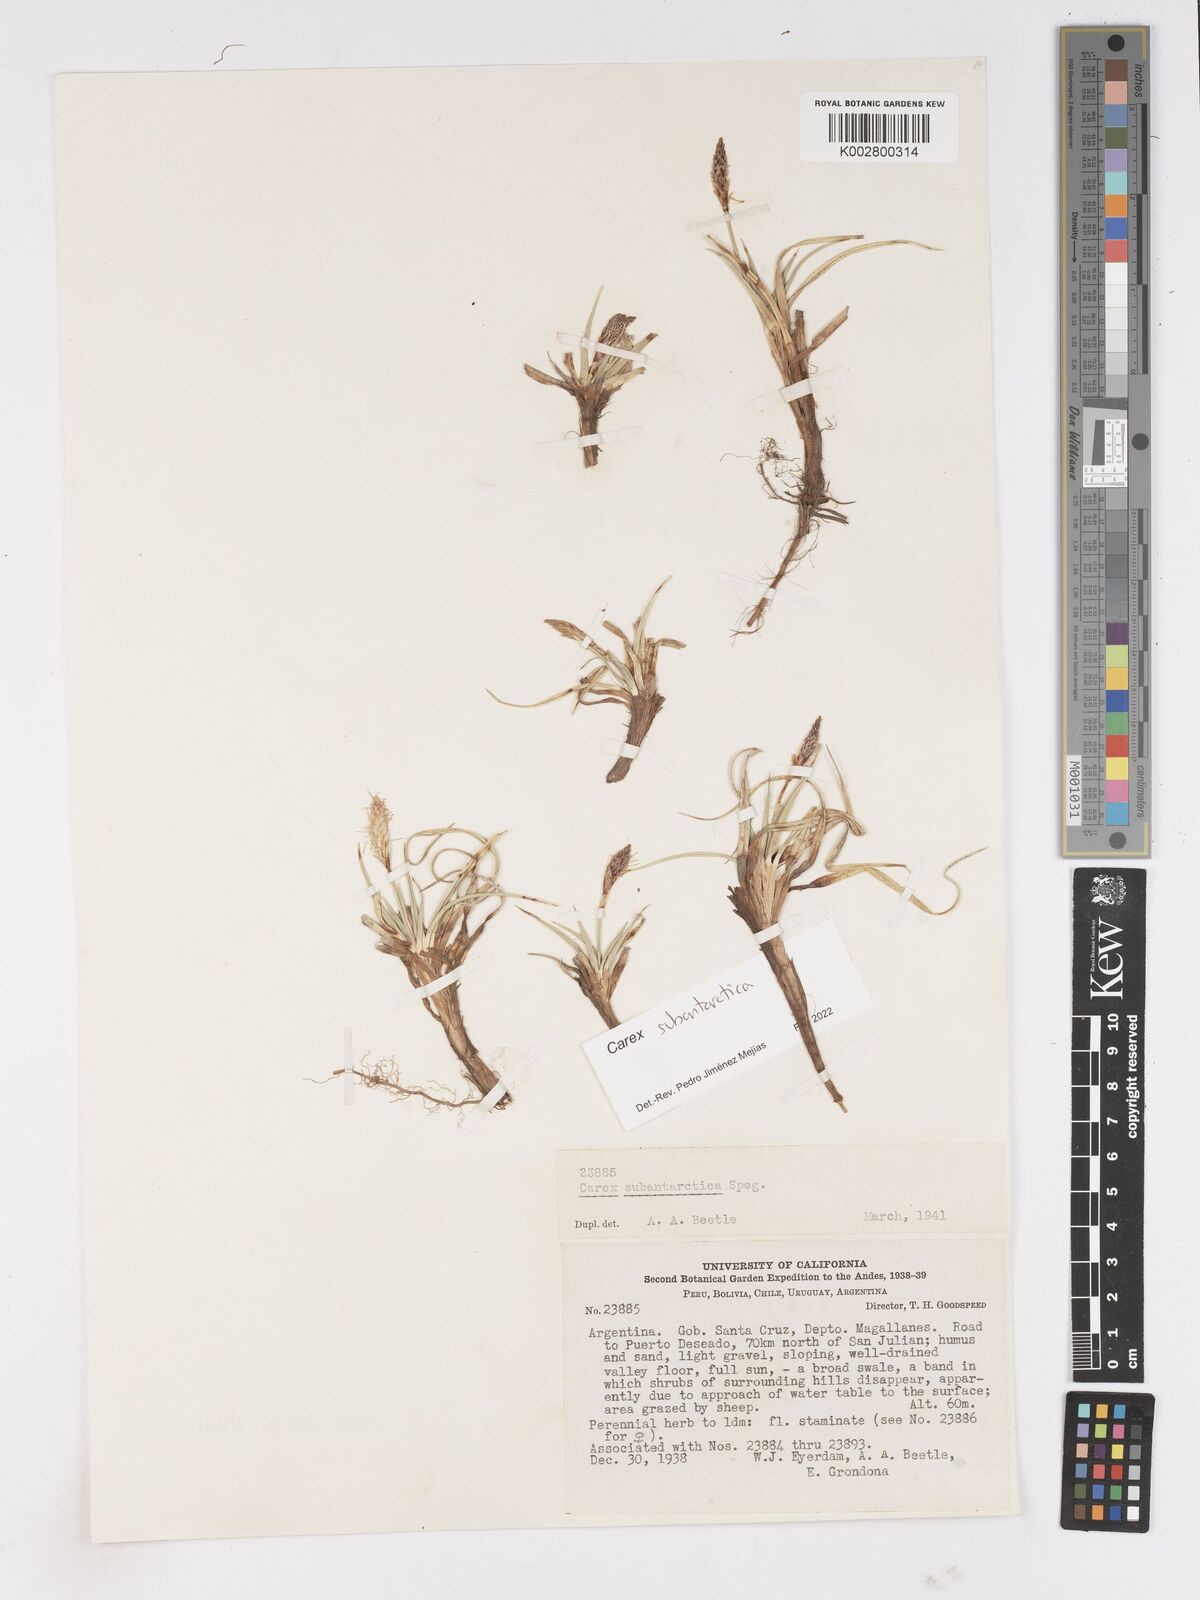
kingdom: Plantae
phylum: Tracheophyta
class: Liliopsida
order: Poales
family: Cyperaceae
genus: Carex
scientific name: Carex subantarctica
